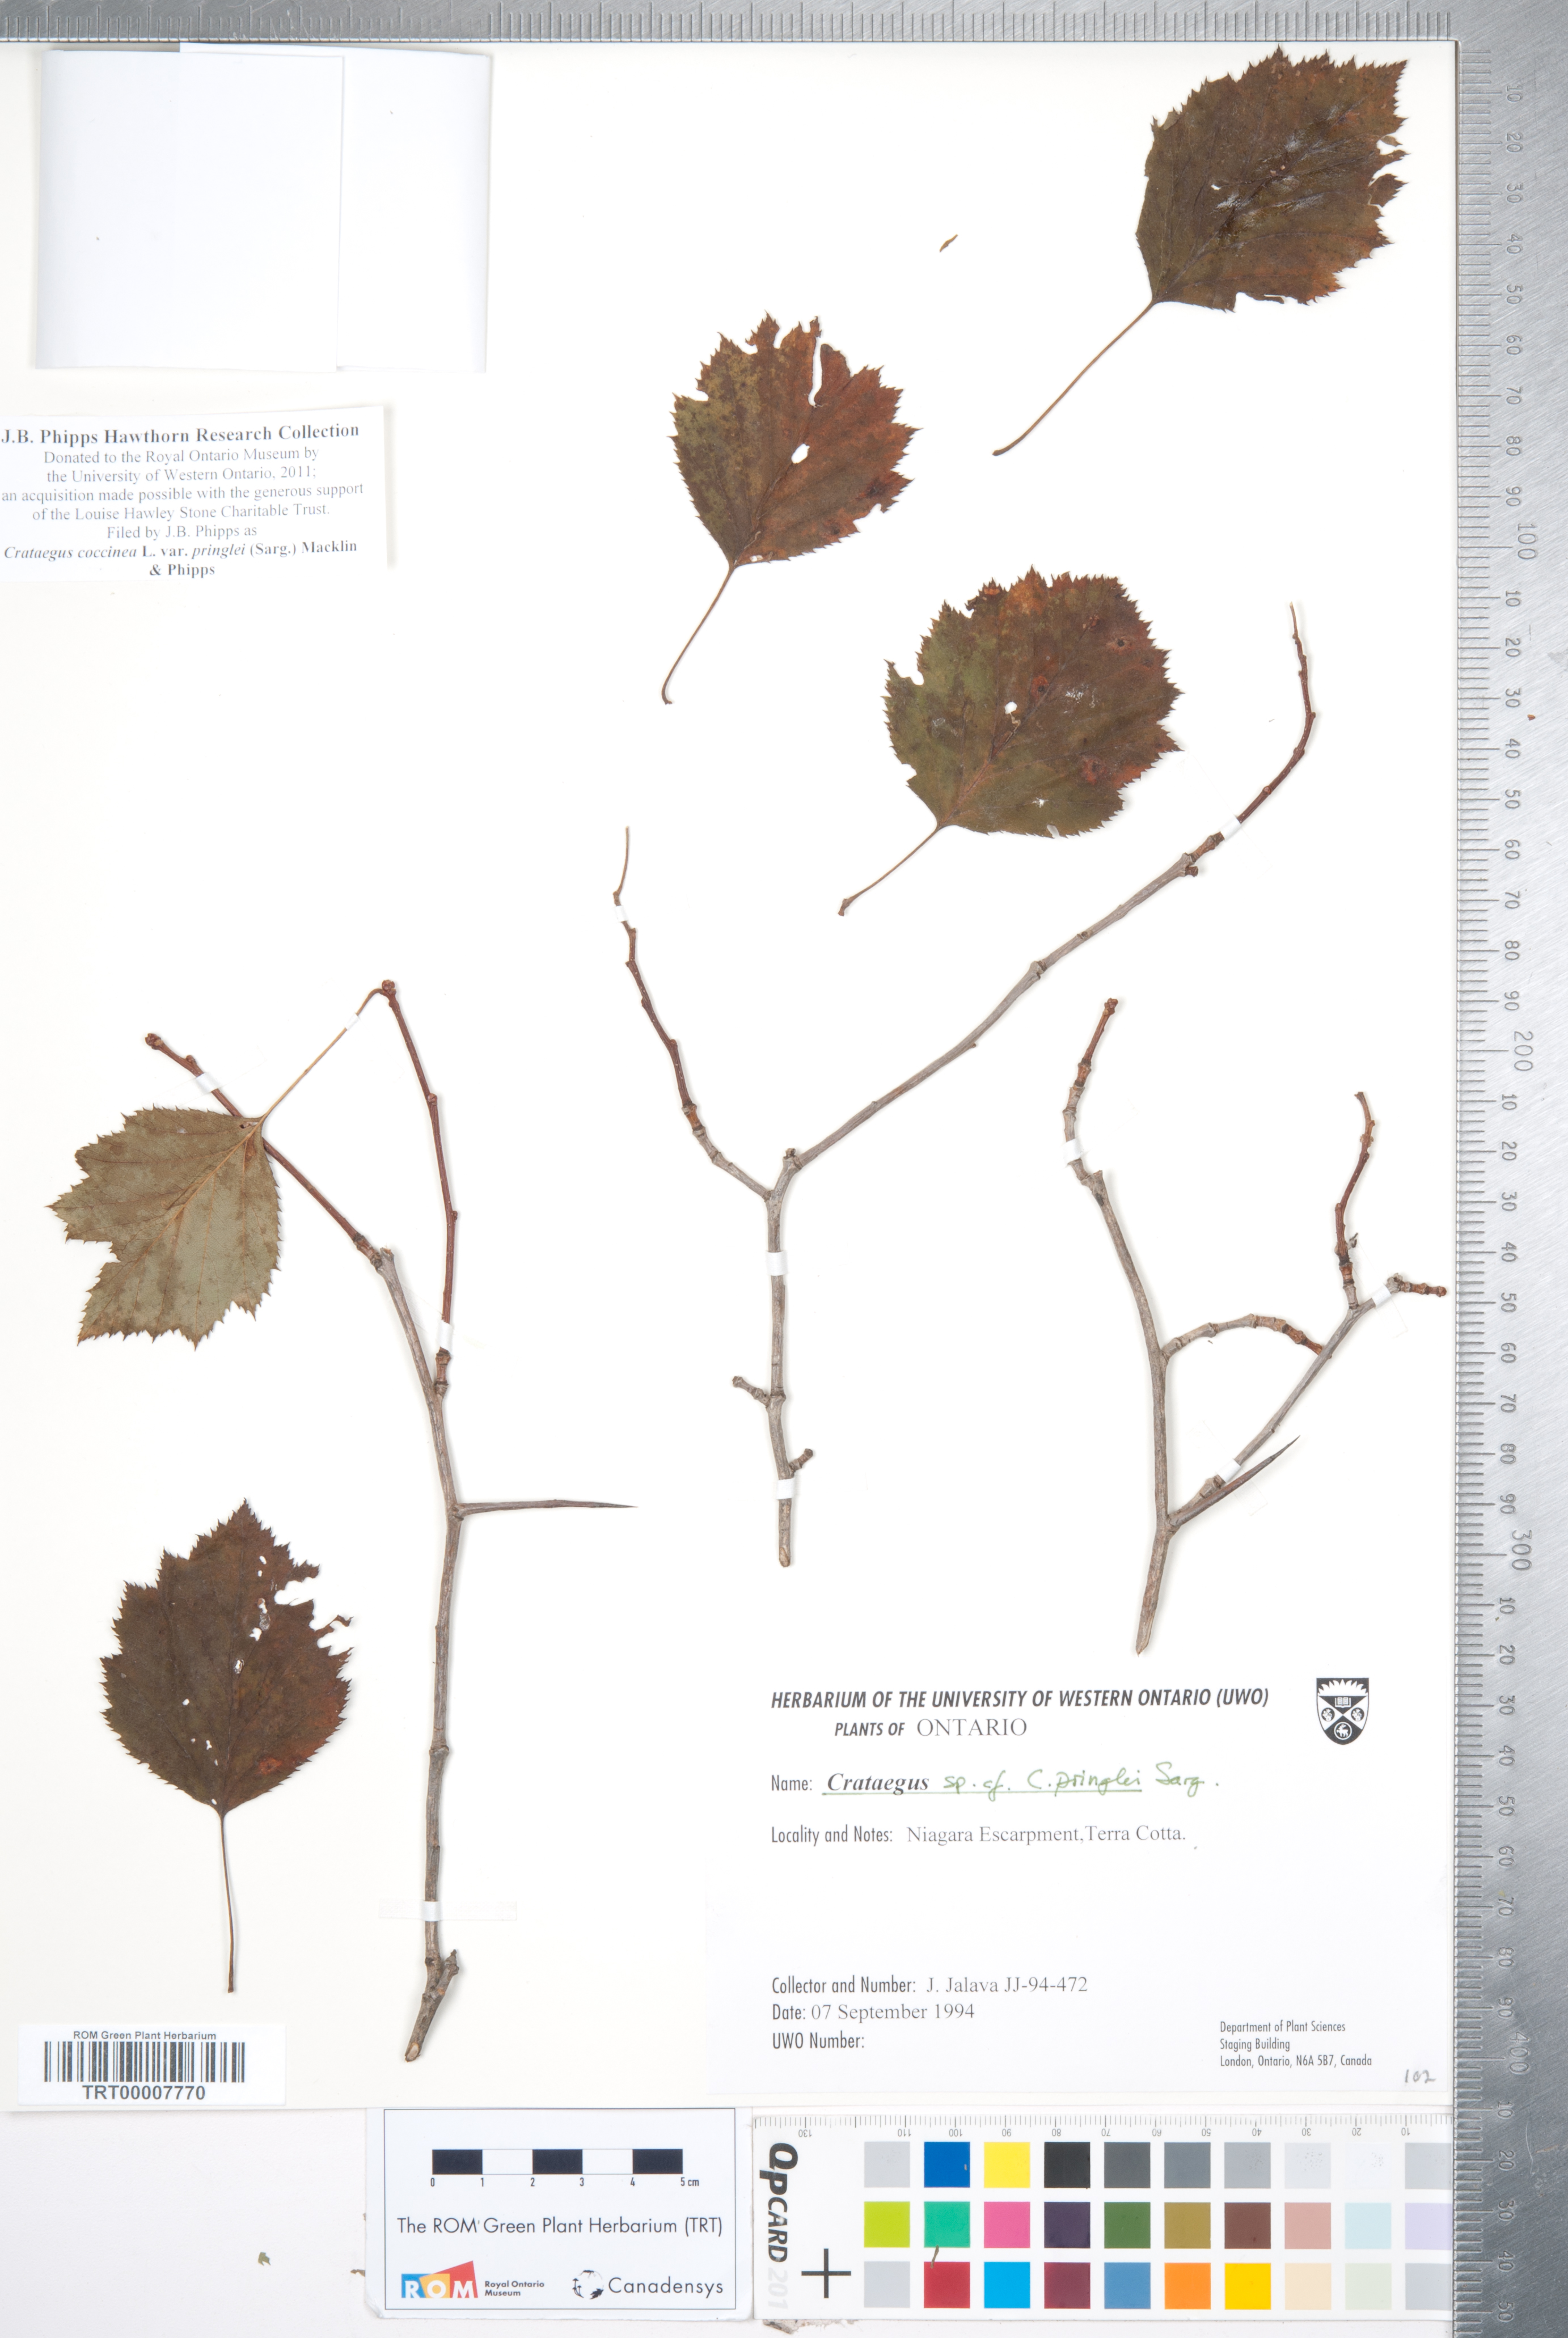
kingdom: Plantae
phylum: Tracheophyta
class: Magnoliopsida
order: Rosales
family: Rosaceae
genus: Crataegus
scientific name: Crataegus coccinea
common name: Scarlet hawthorn
